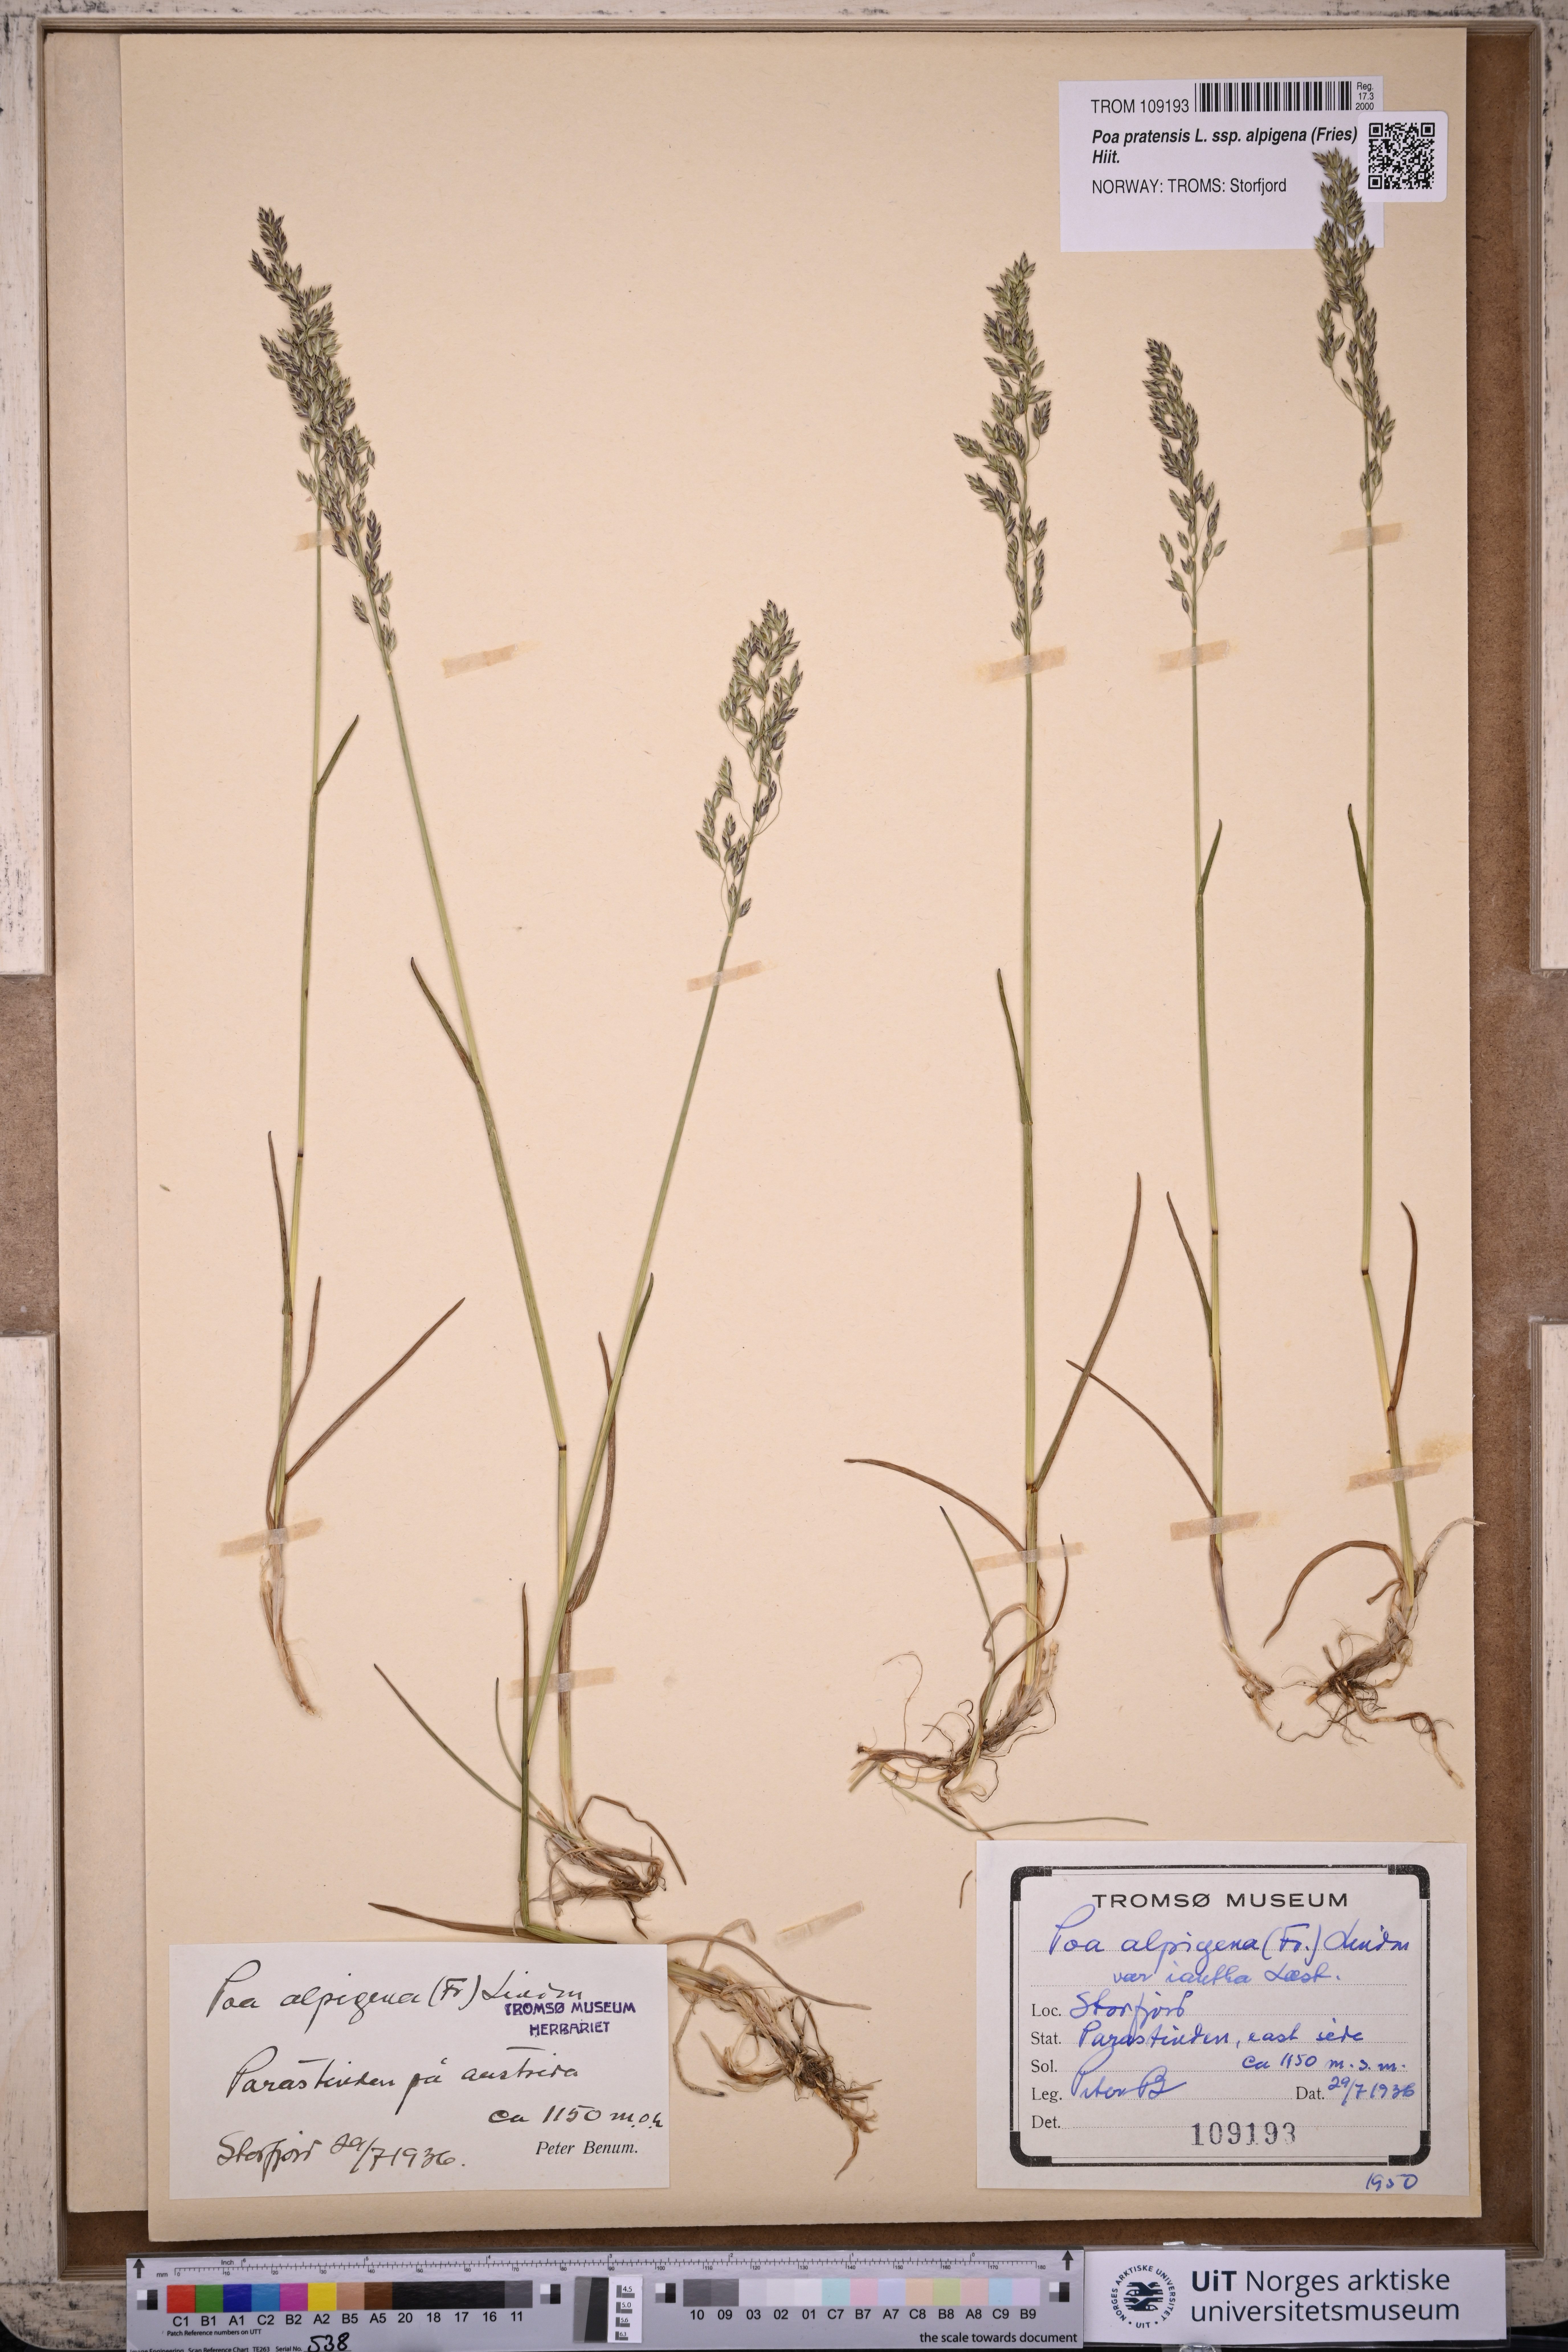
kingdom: Plantae
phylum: Tracheophyta
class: Liliopsida
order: Poales
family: Poaceae
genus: Poa
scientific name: Poa alpigena
